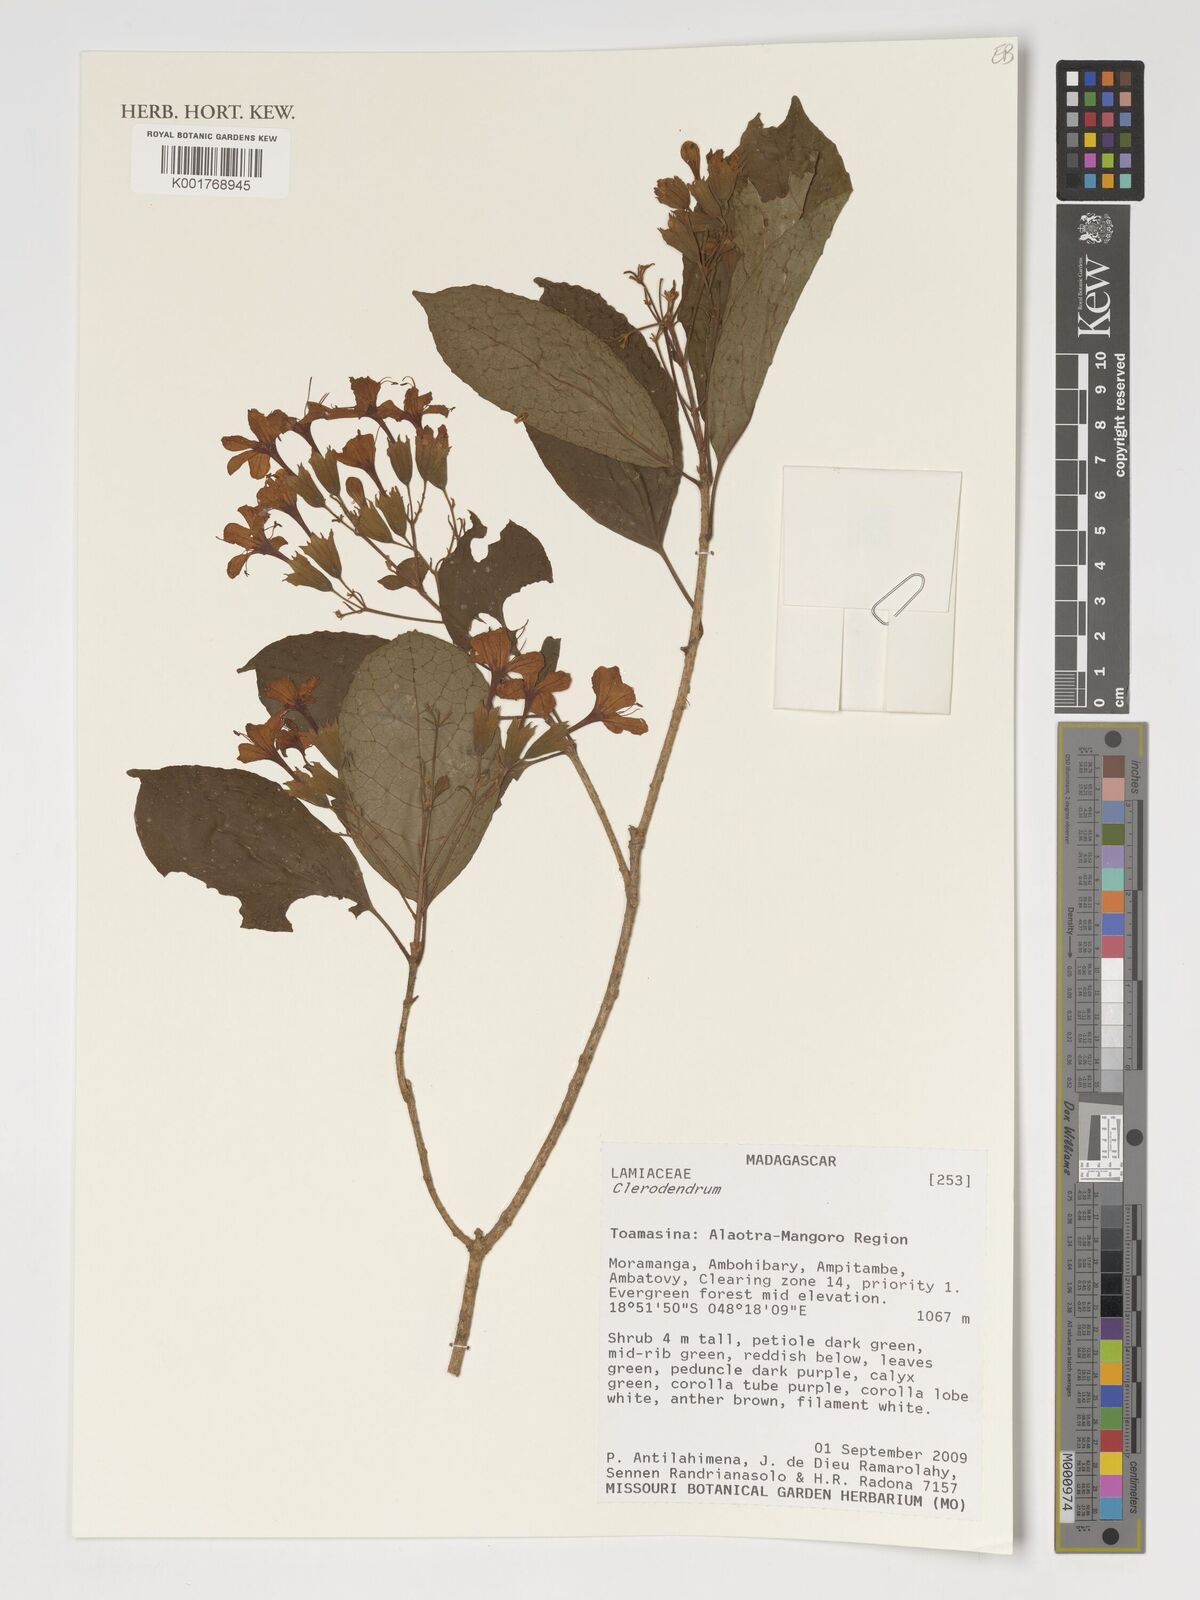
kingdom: Plantae
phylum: Tracheophyta
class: Magnoliopsida
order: Lamiales
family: Lamiaceae
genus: Clerodendrum
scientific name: Clerodendrum
